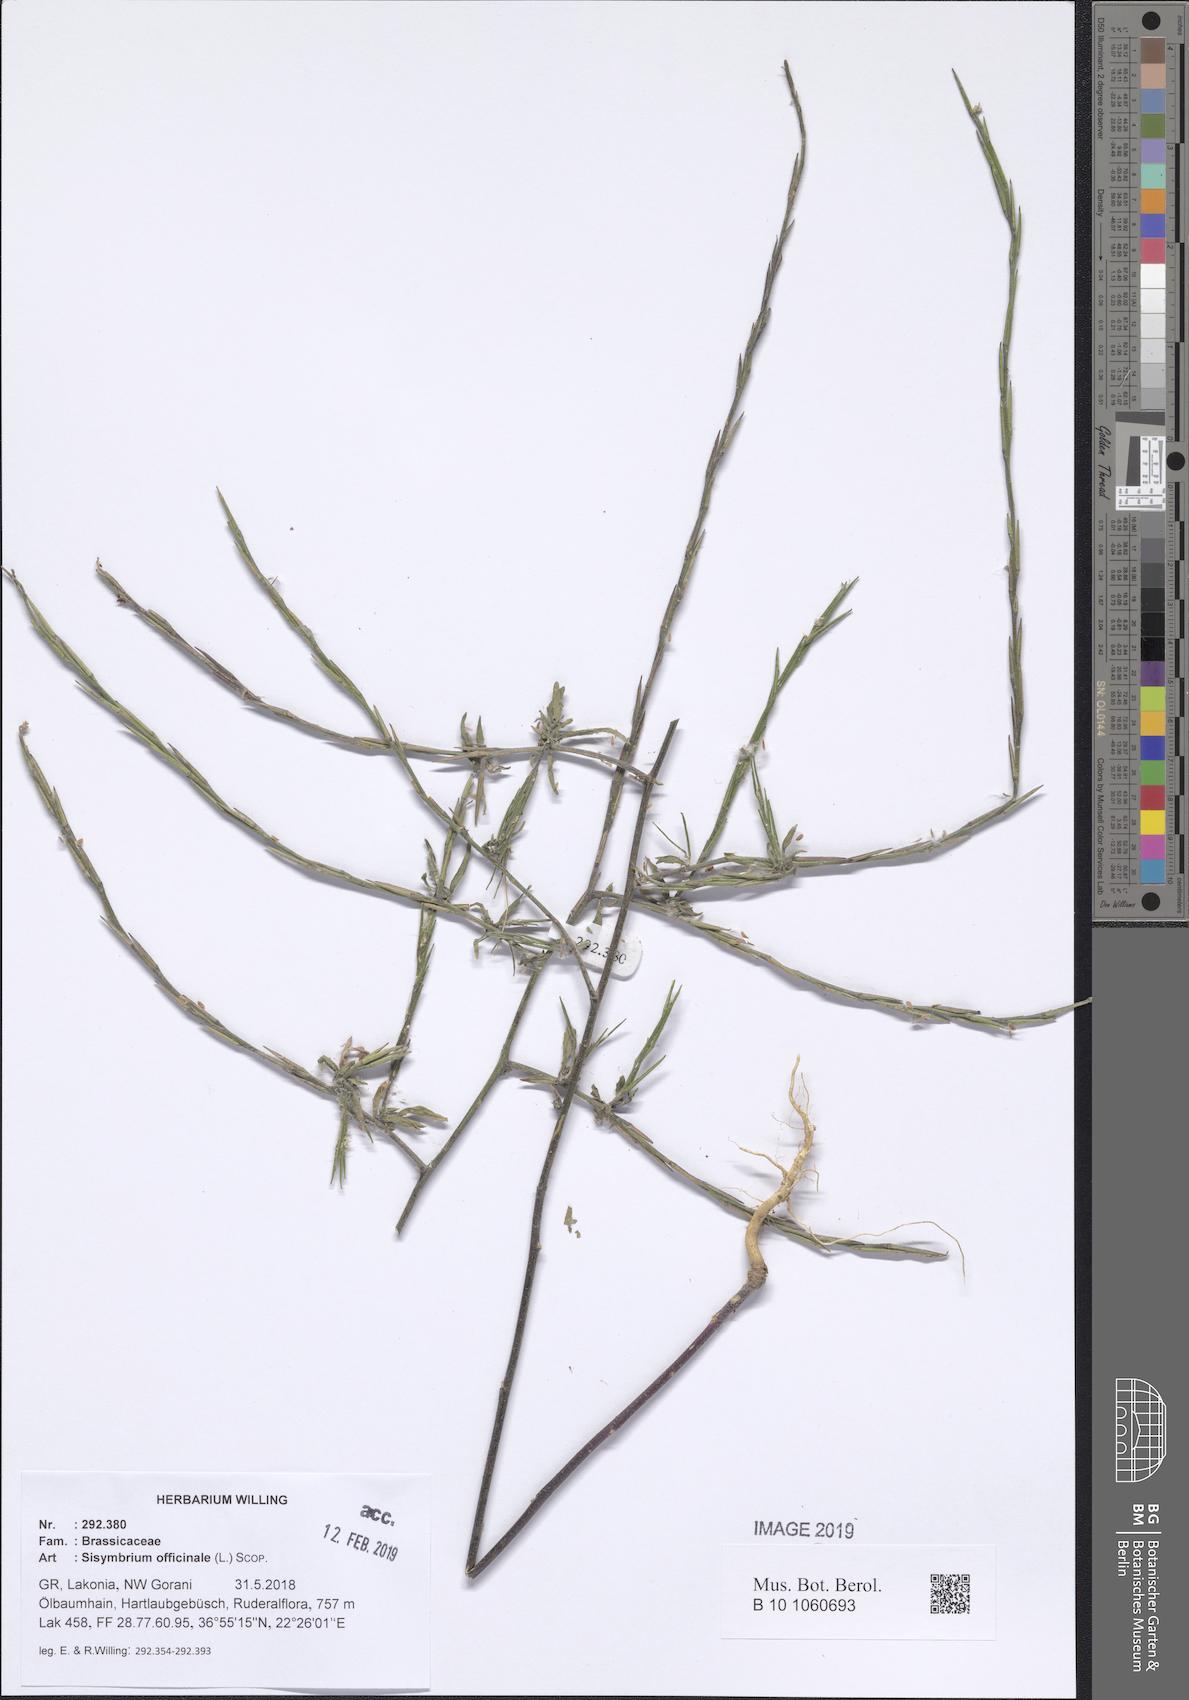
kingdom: Plantae
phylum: Tracheophyta
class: Magnoliopsida
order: Brassicales
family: Brassicaceae
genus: Sisymbrium
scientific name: Sisymbrium officinale
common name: Hedge mustard
